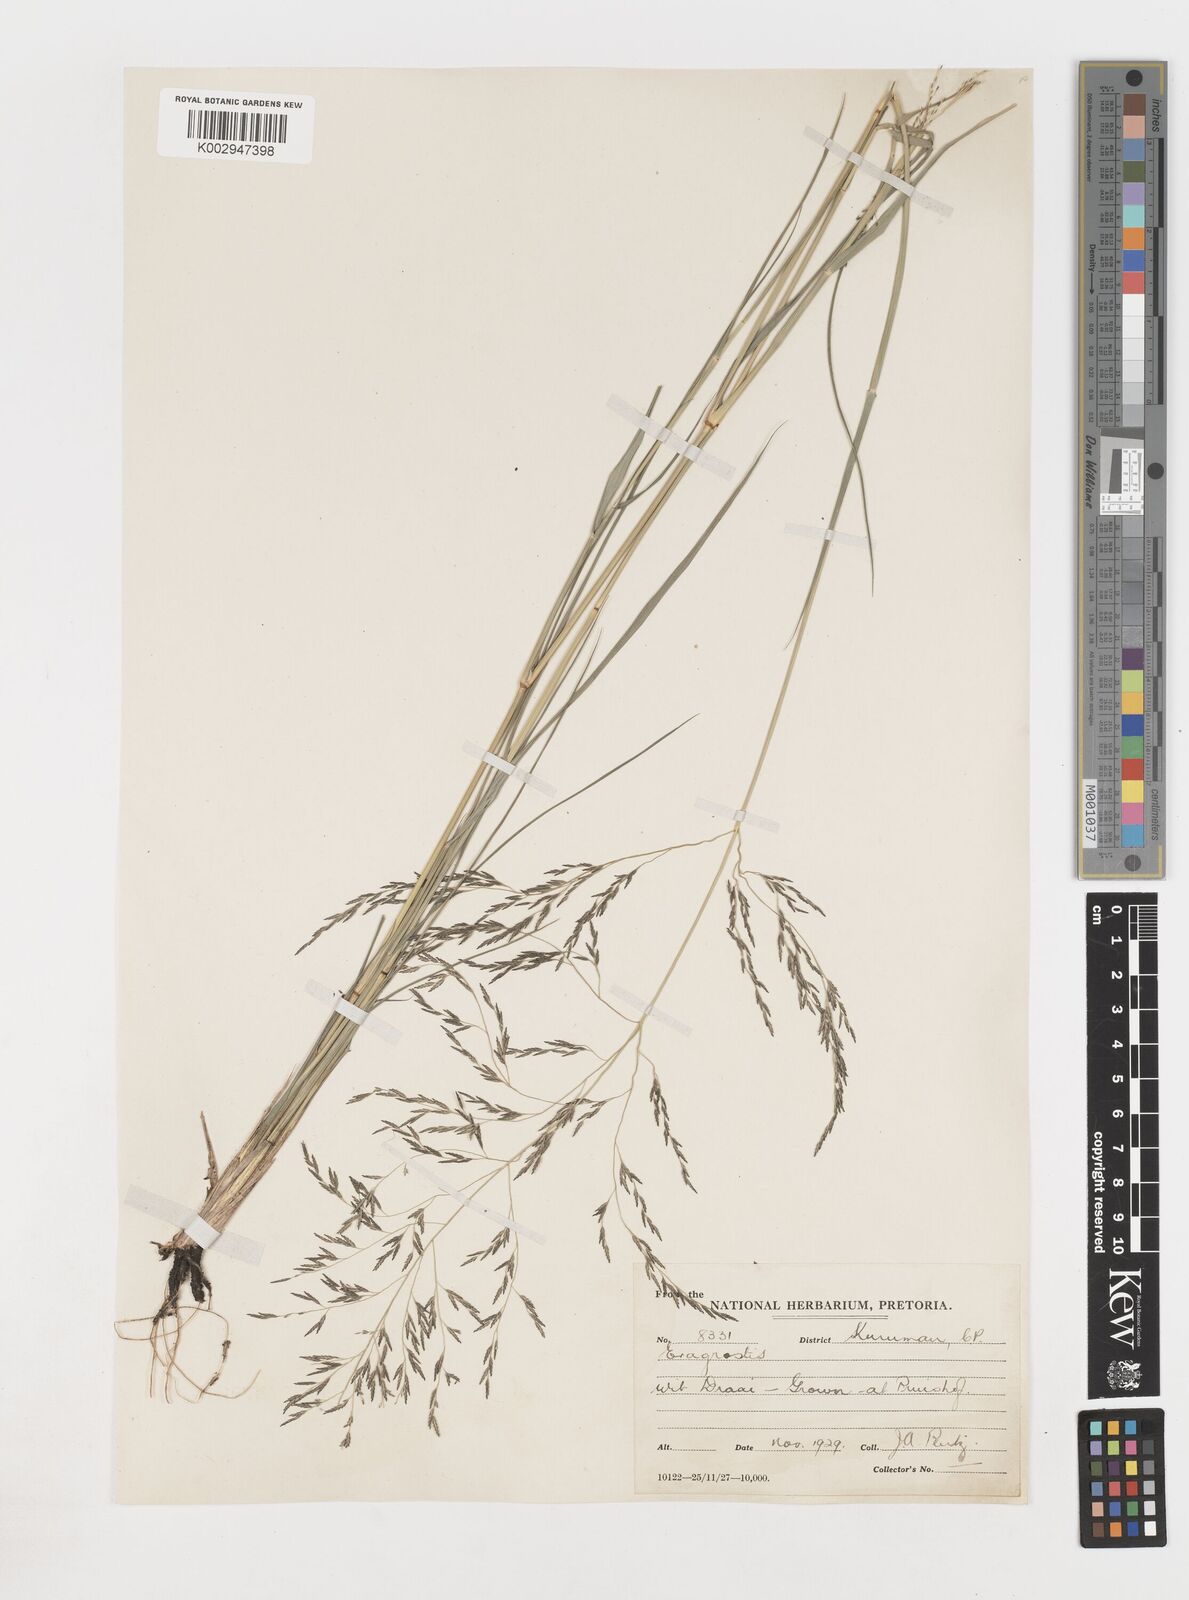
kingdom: Plantae
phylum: Tracheophyta
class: Liliopsida
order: Poales
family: Poaceae
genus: Eragrostis
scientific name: Eragrostis
